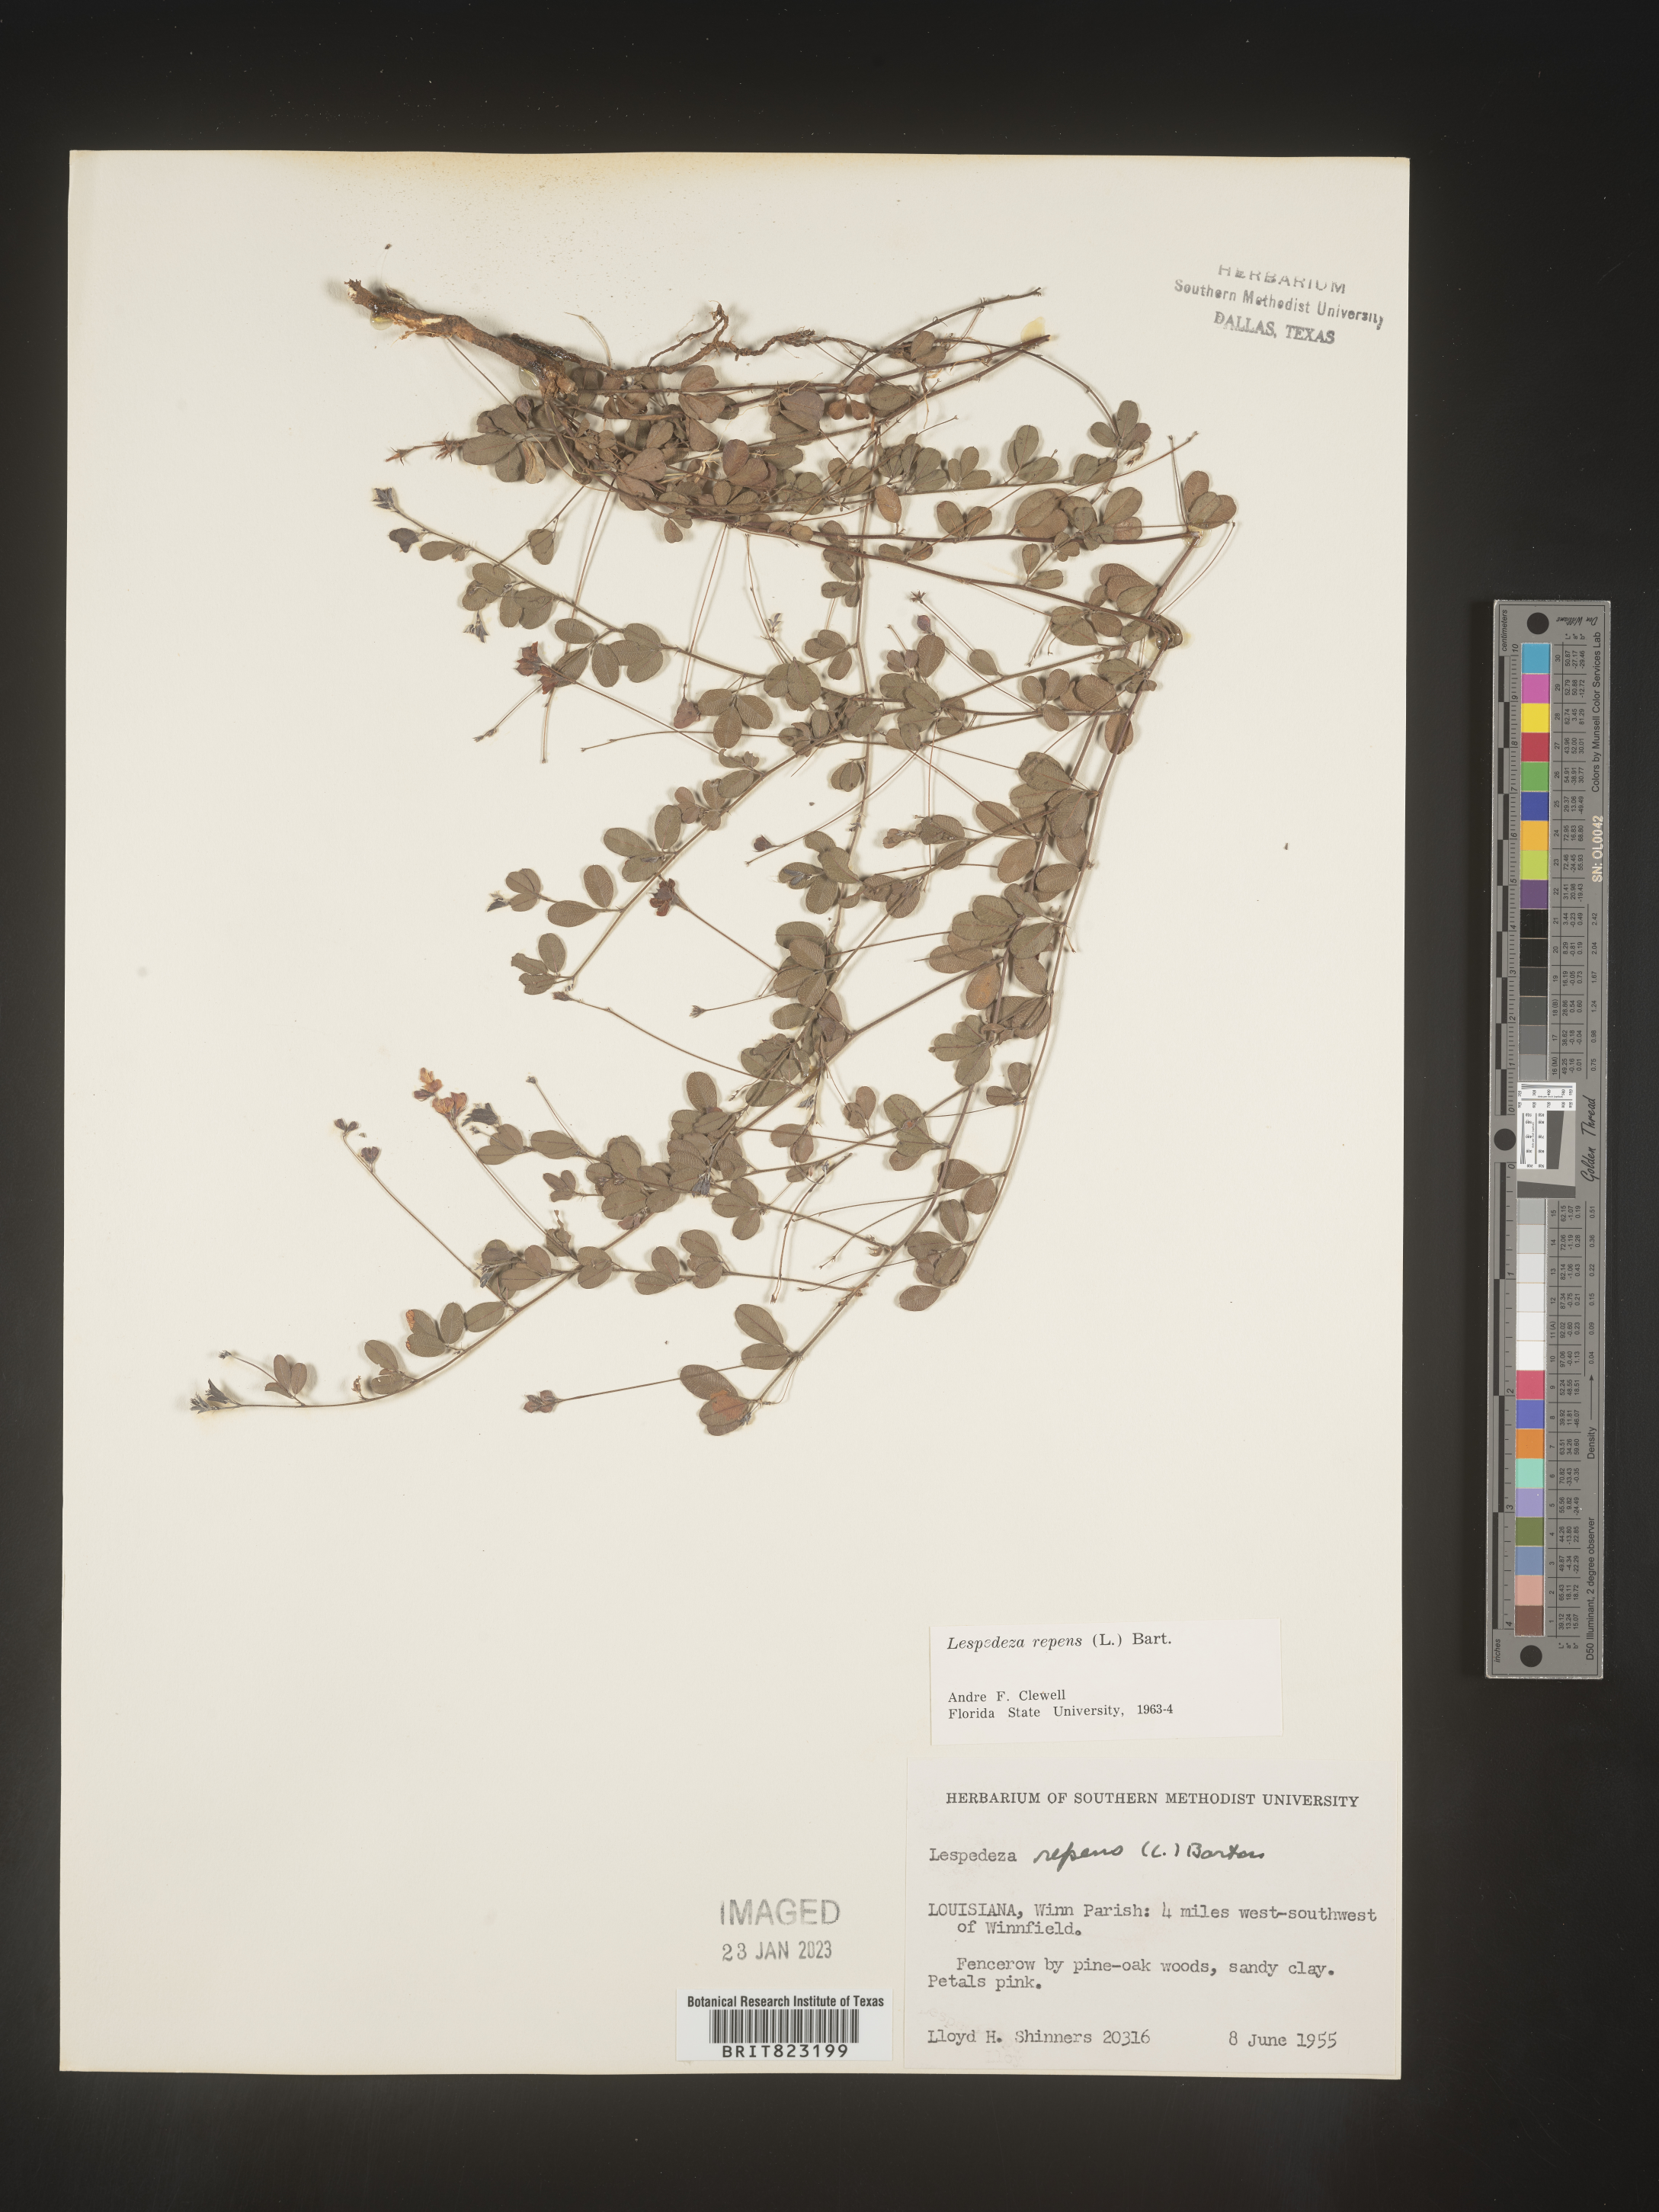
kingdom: Plantae
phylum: Tracheophyta
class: Magnoliopsida
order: Fabales
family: Fabaceae
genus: Lespedeza
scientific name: Lespedeza repens
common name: Creeping bush-clover
